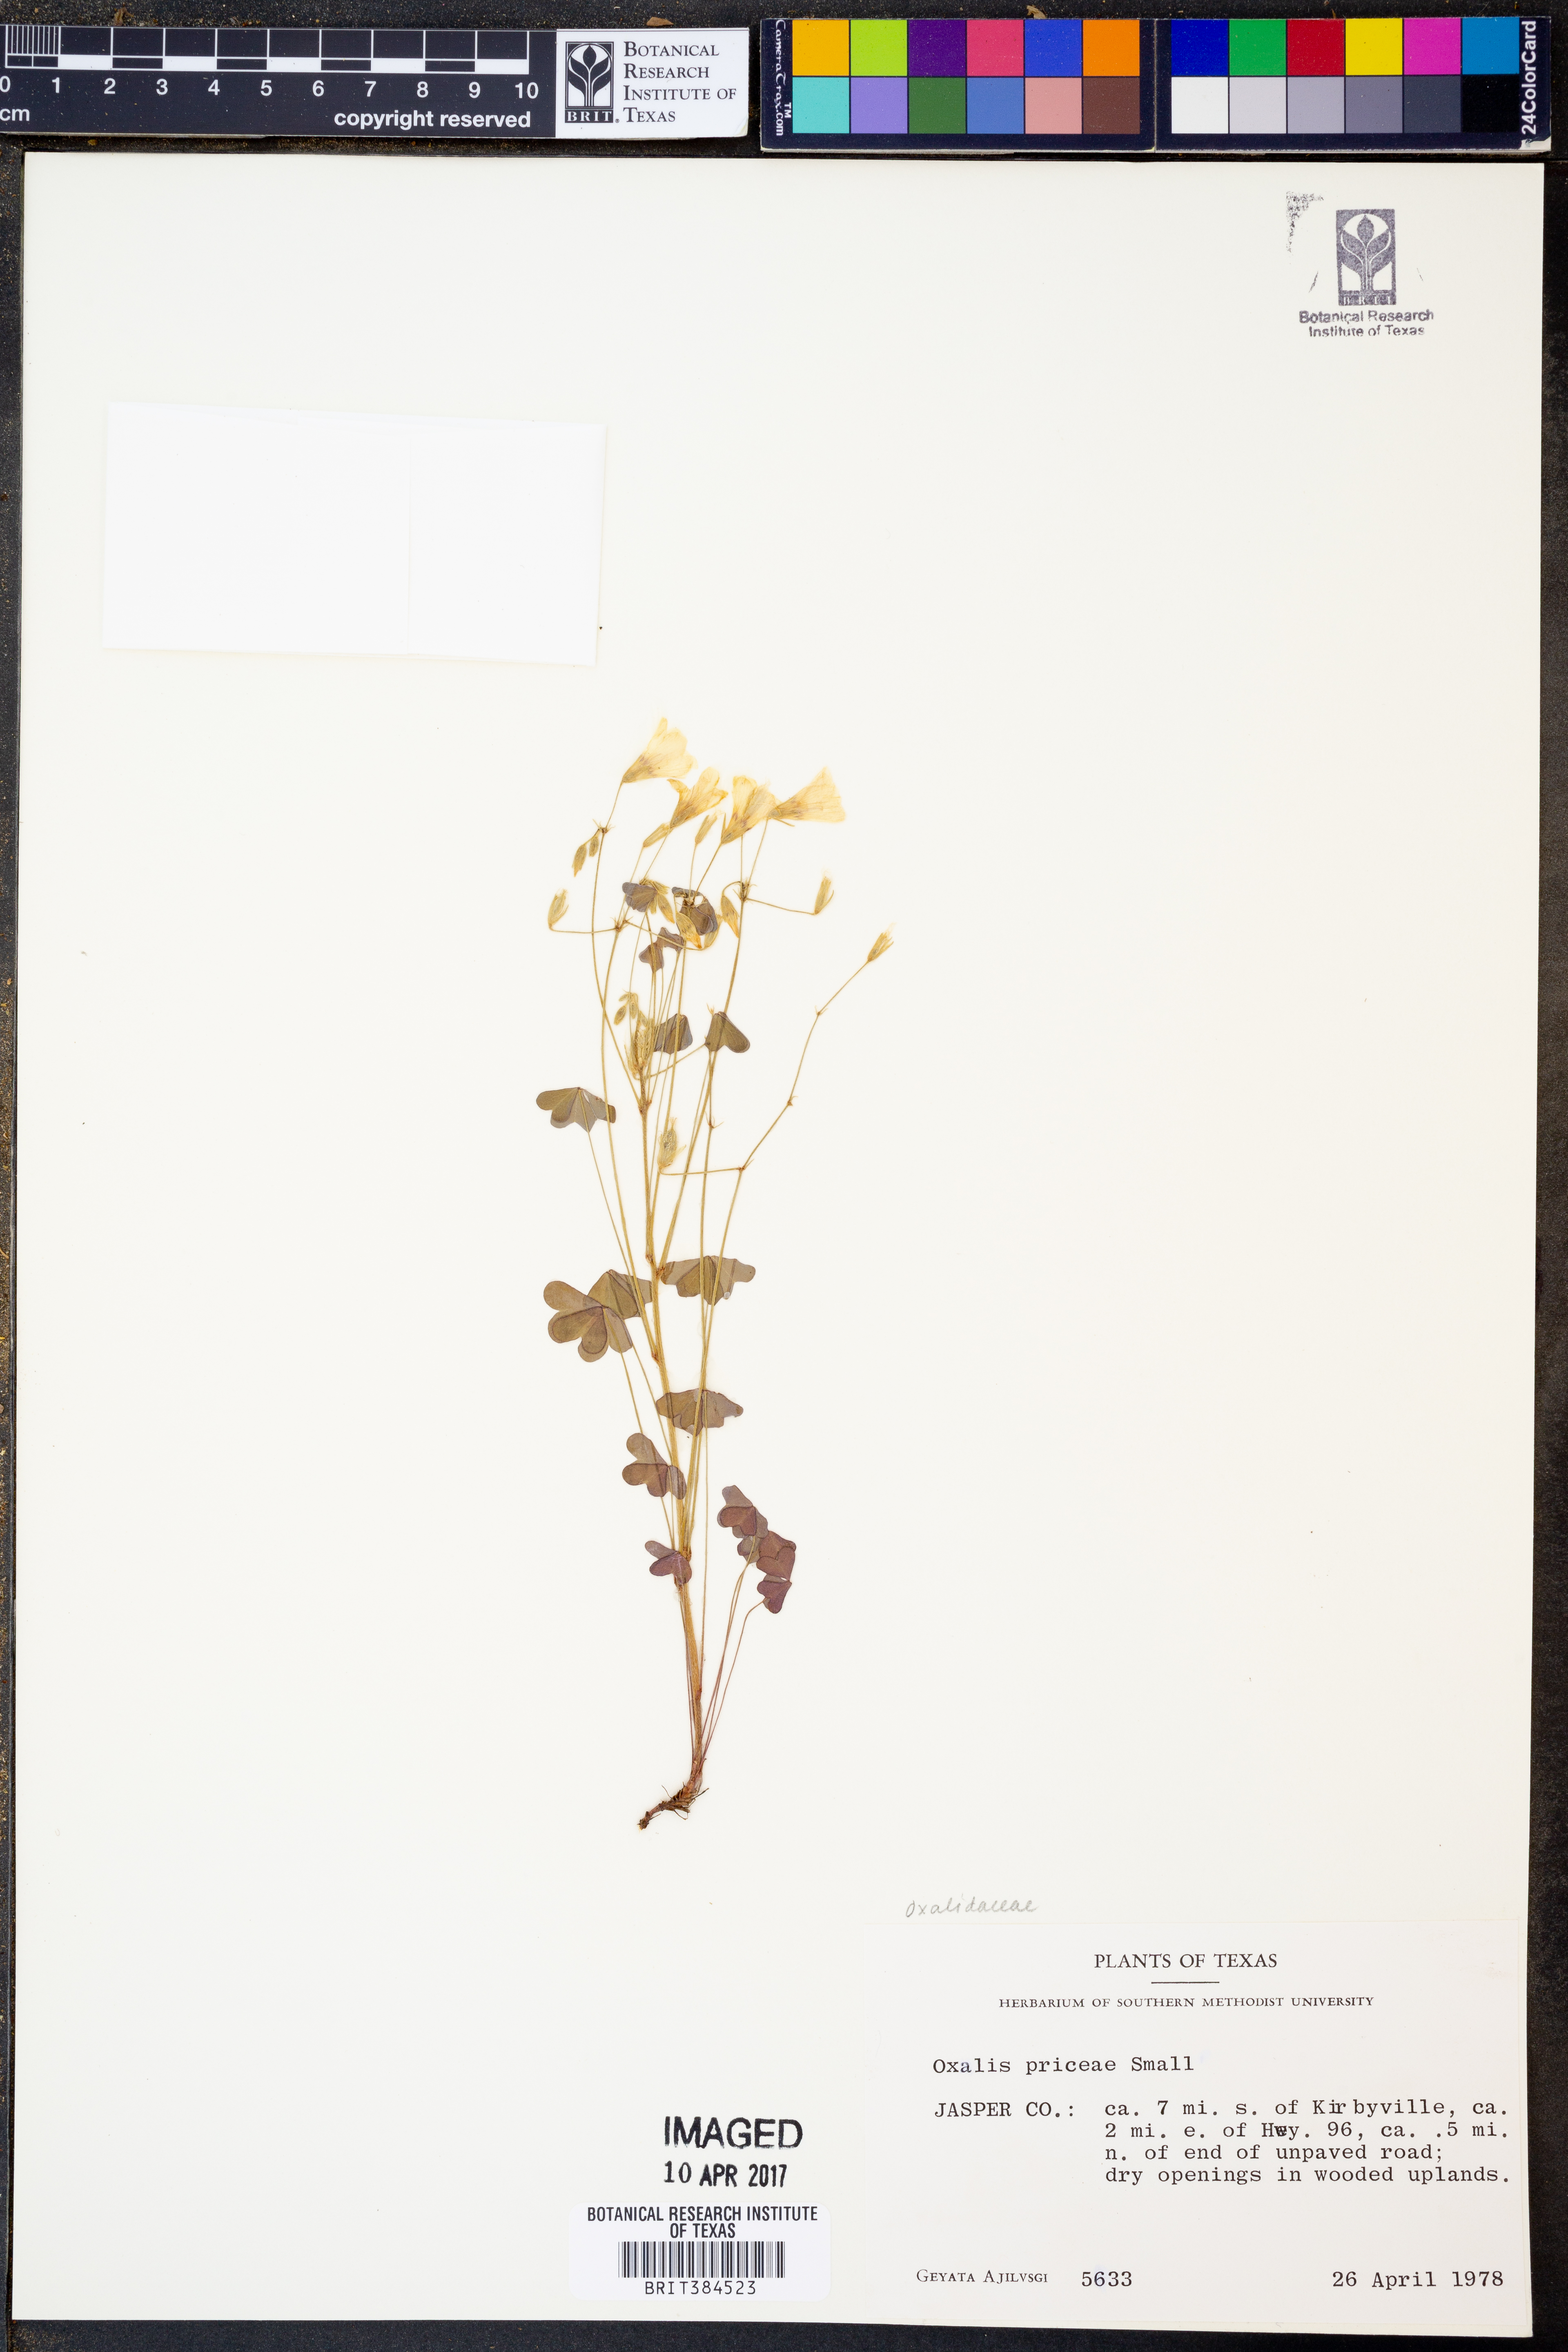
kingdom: Plantae
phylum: Tracheophyta
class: Magnoliopsida
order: Oxalidales
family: Oxalidaceae
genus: Oxalis
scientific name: Oxalis macrantha
